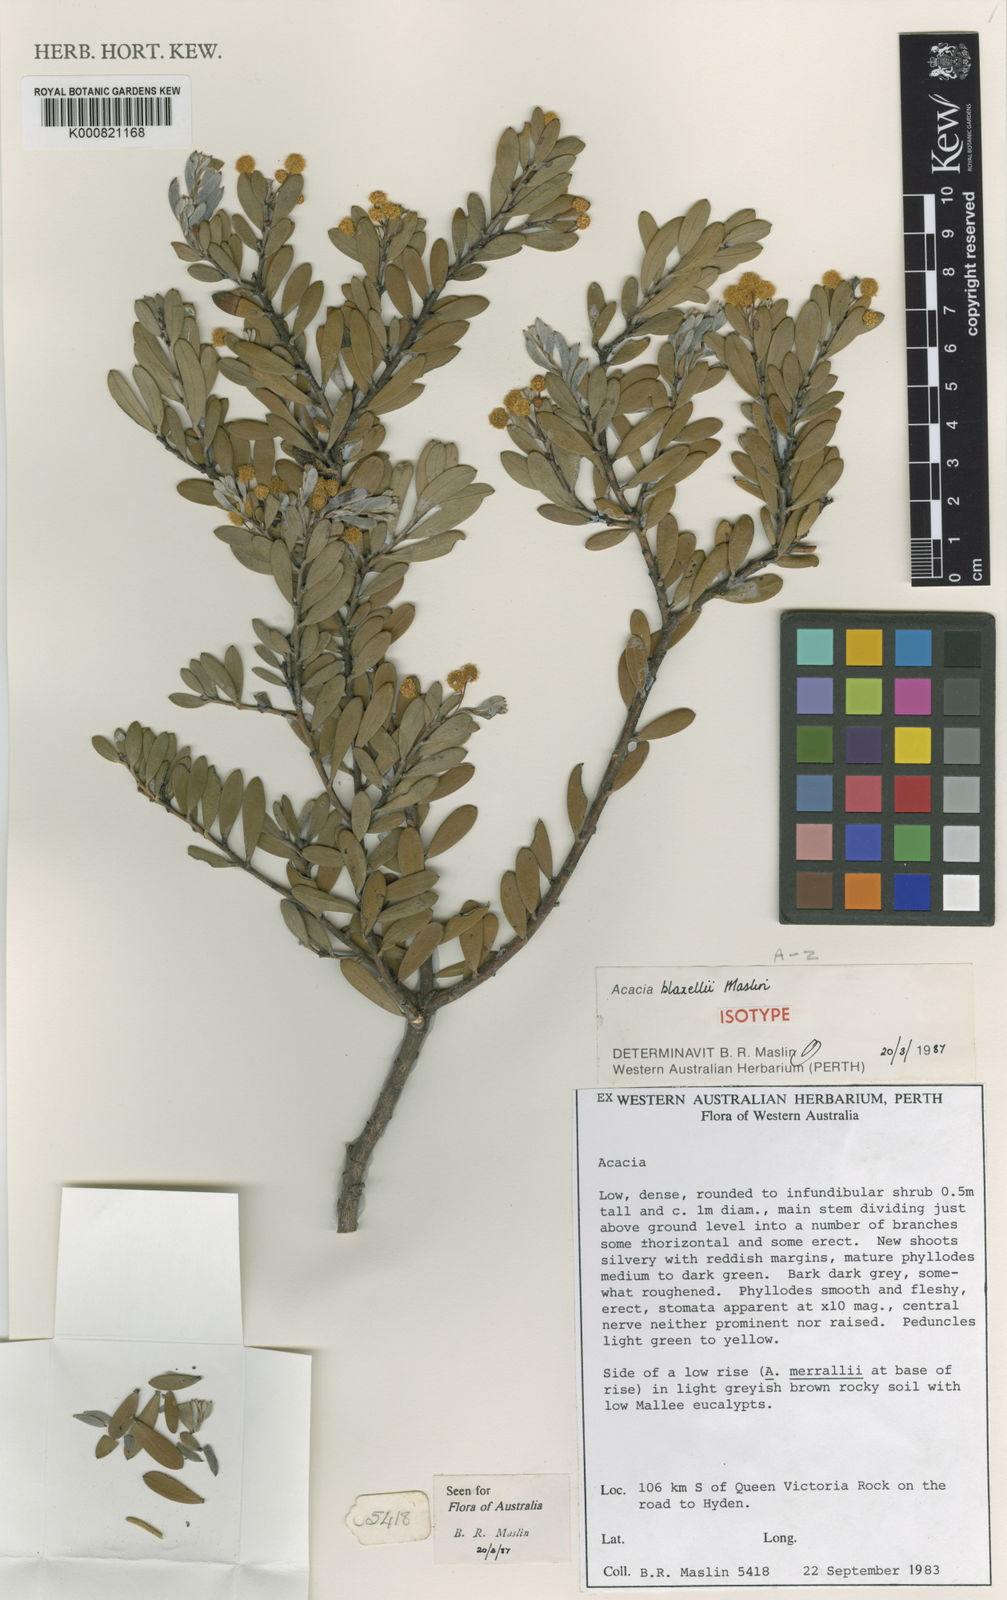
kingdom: Plantae
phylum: Tracheophyta
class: Magnoliopsida
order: Fabales
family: Fabaceae
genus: Acacia
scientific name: Acacia blaxellii
